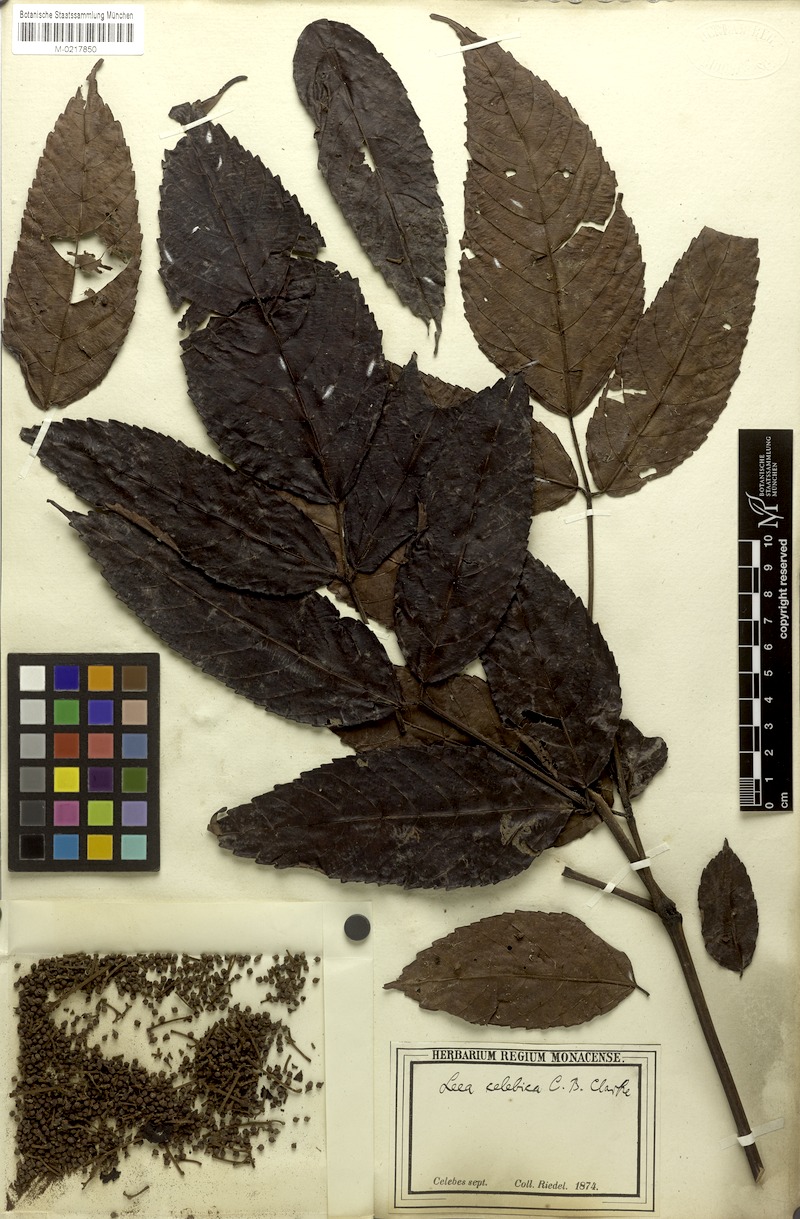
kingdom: Plantae
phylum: Tracheophyta
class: Magnoliopsida
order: Vitales
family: Vitaceae
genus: Leea
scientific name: Leea indica
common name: Bandicoot-berry
